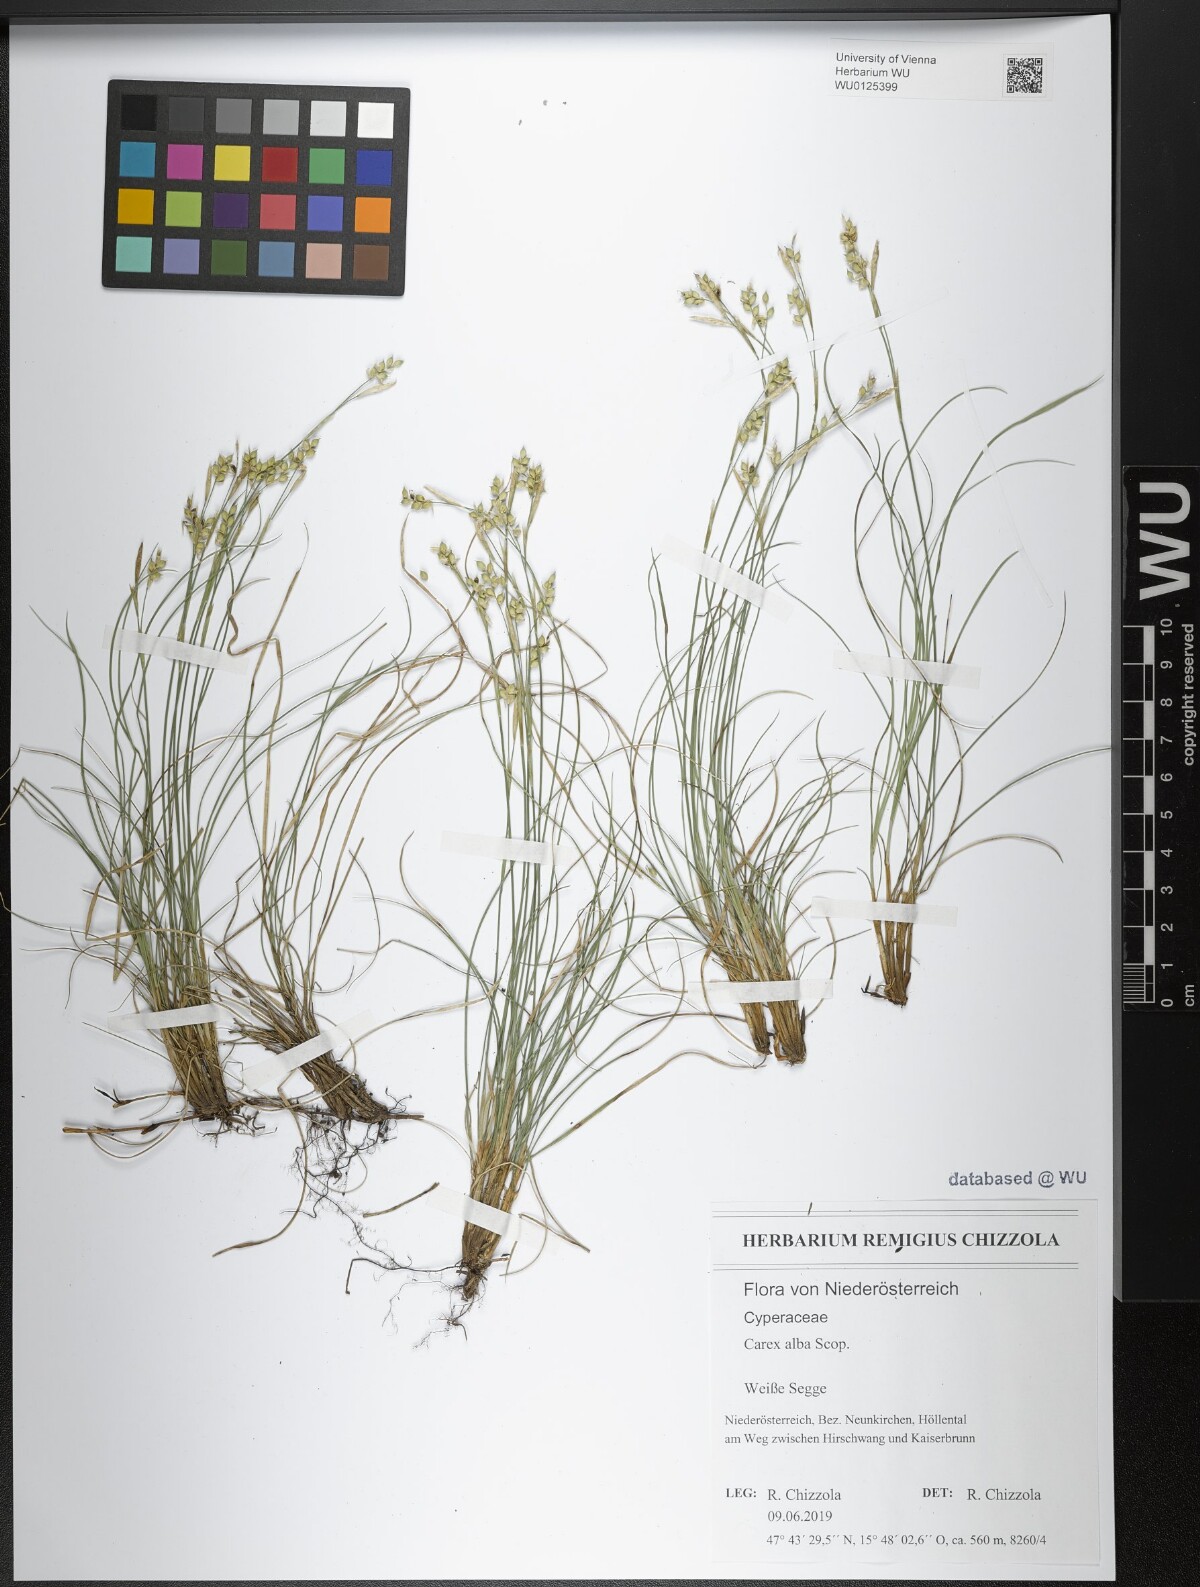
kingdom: Plantae
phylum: Tracheophyta
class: Liliopsida
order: Poales
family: Cyperaceae
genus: Carex
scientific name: Carex alba
